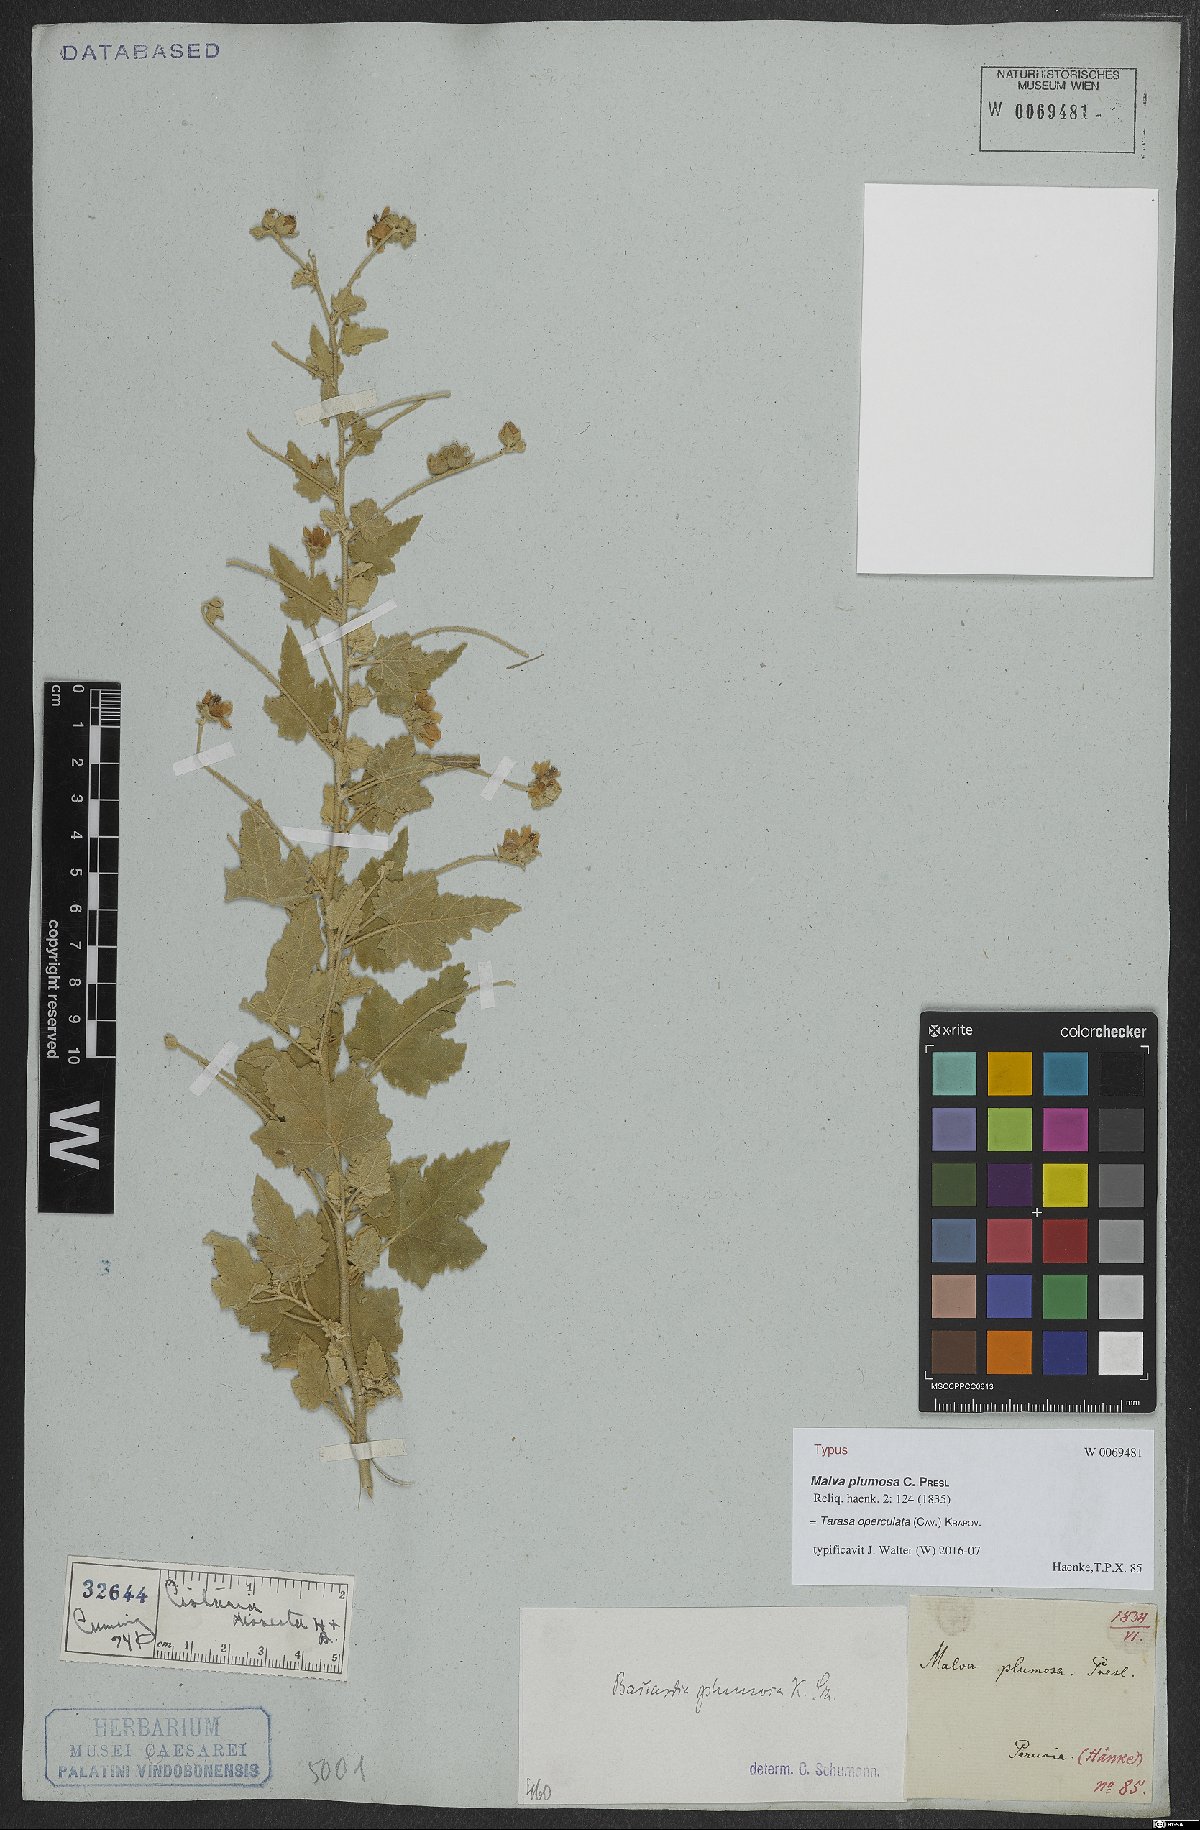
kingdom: Plantae
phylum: Tracheophyta
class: Magnoliopsida
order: Malvales
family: Malvaceae
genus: Tarasa
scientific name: Tarasa operculata
